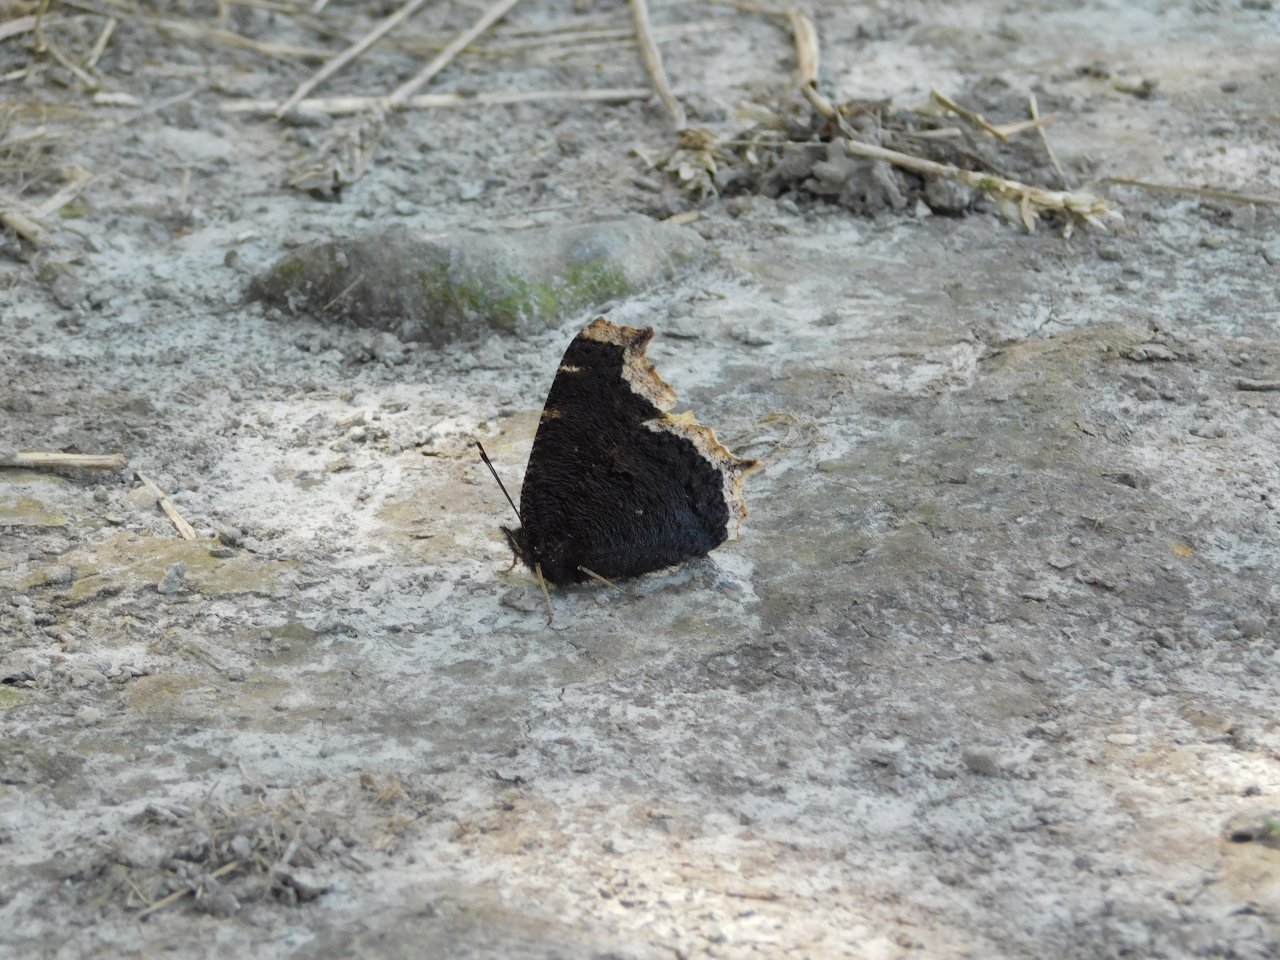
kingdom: Animalia
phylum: Arthropoda
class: Insecta
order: Lepidoptera
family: Nymphalidae
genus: Nymphalis
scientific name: Nymphalis antiopa
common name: Mourning Cloak
